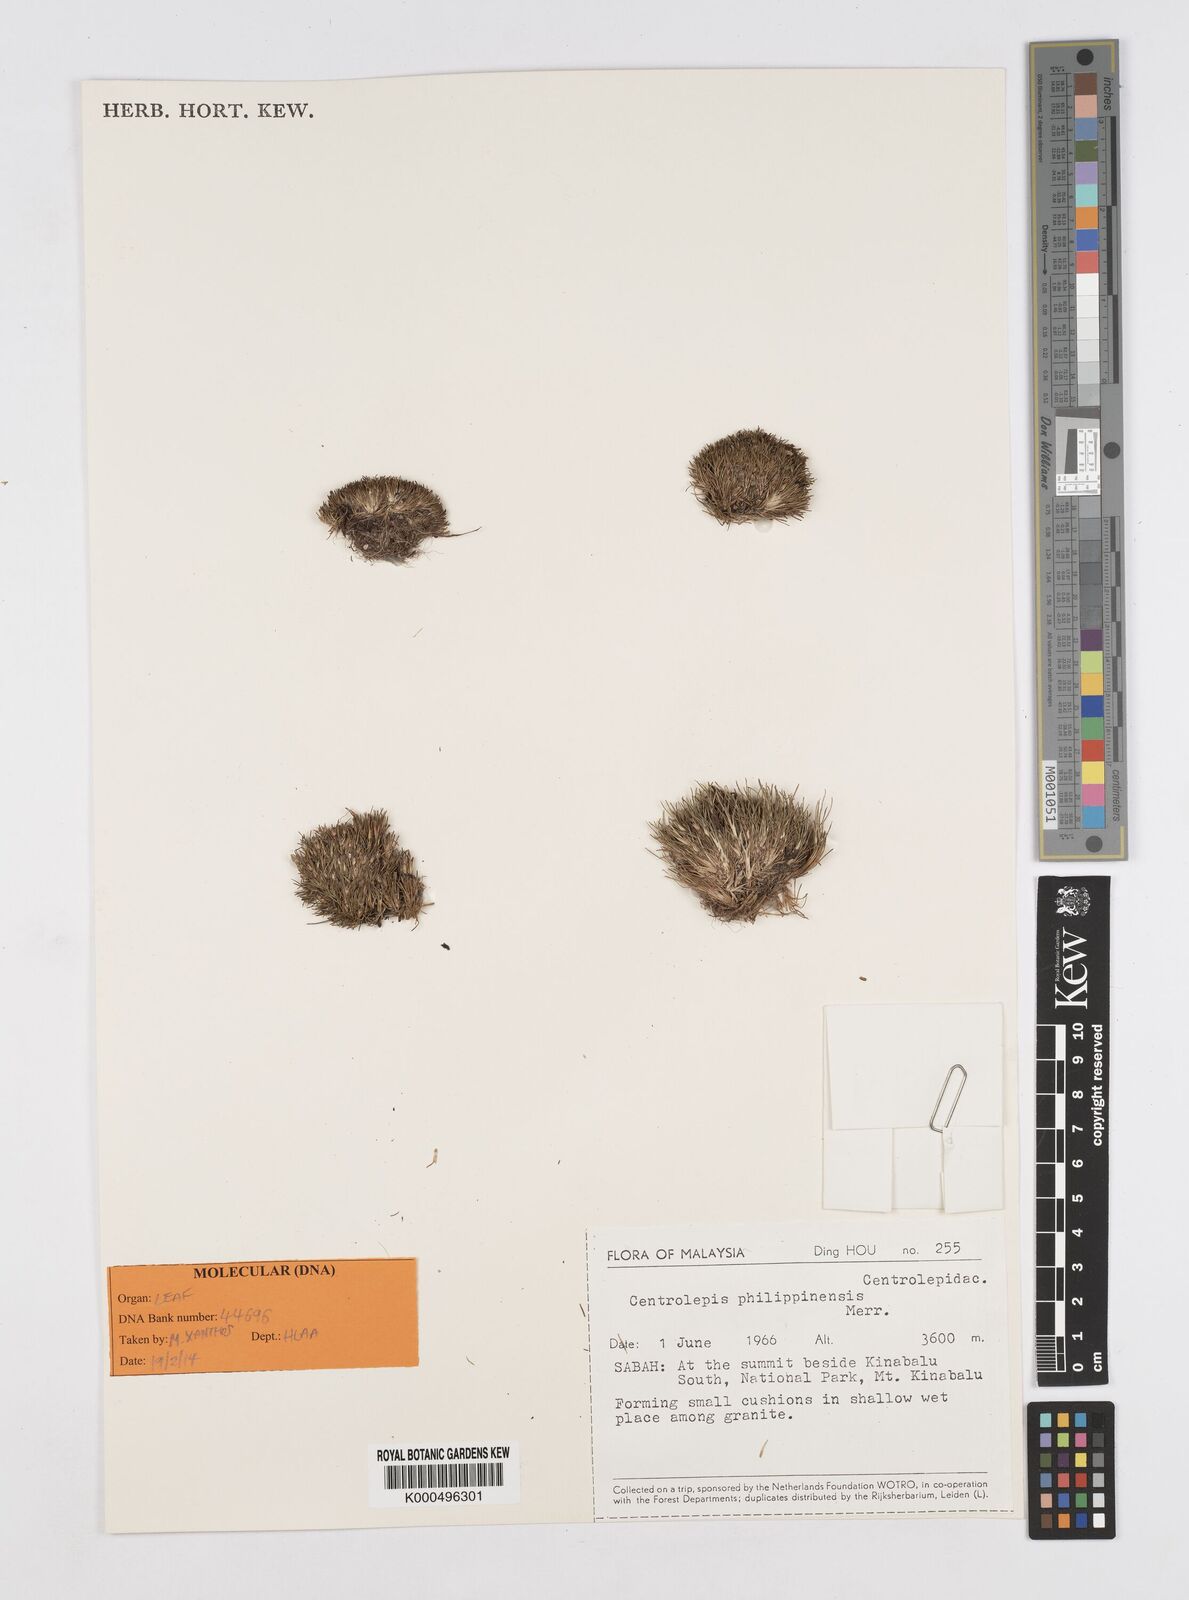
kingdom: Plantae
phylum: Tracheophyta
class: Liliopsida
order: Poales
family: Restionaceae
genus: Centrolepis
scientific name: Centrolepis philippinensis
